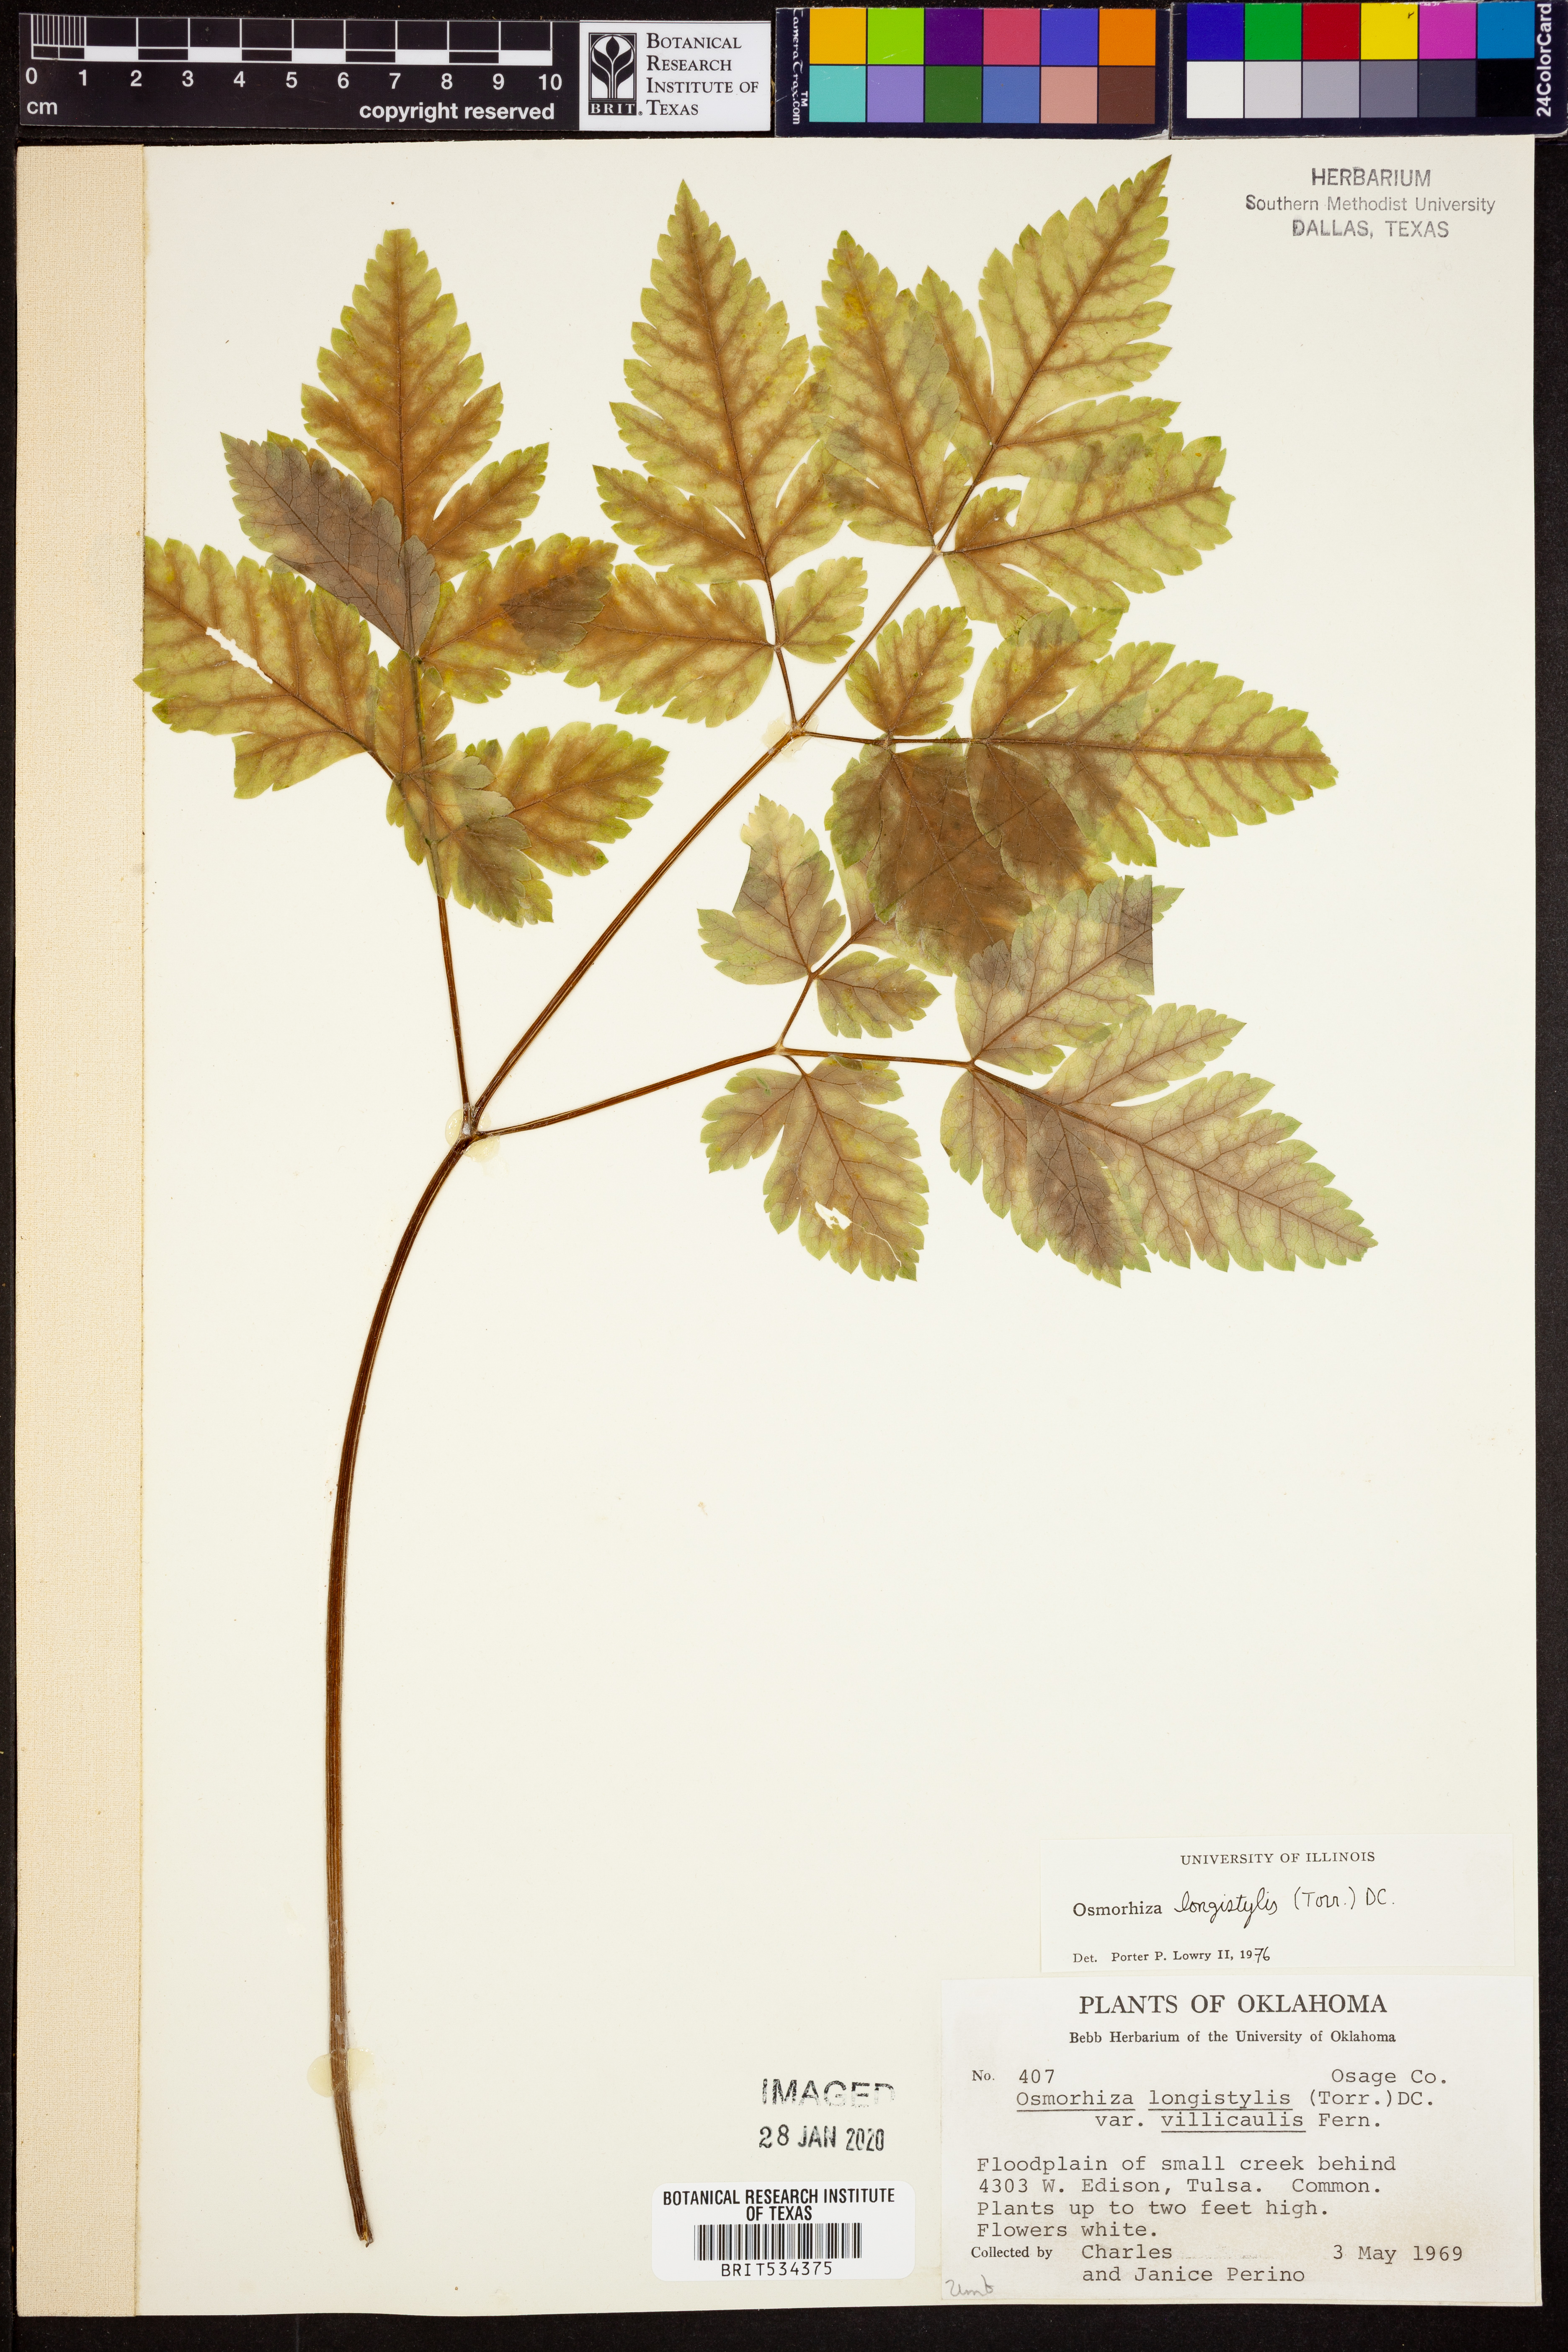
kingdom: Plantae
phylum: Tracheophyta
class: Magnoliopsida
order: Apiales
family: Apiaceae
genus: Osmorhiza
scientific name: Osmorhiza longistylis
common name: Smooth sweet cicely
